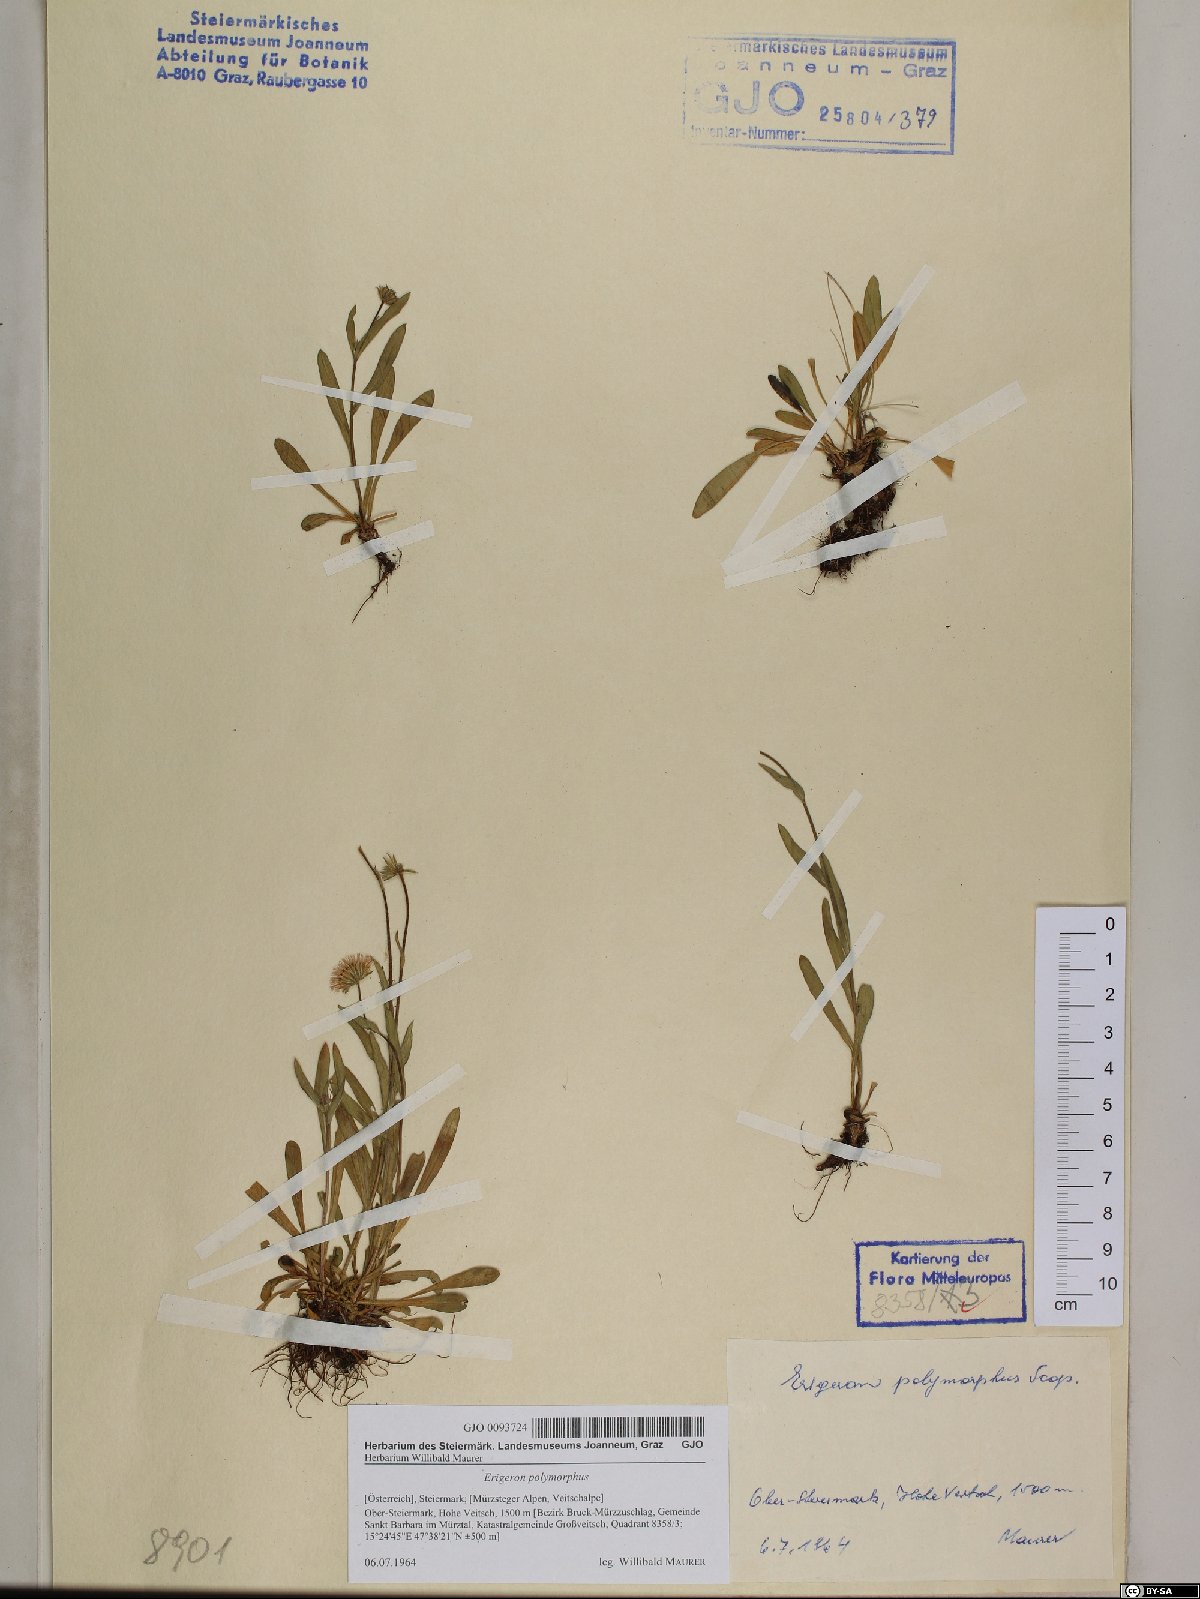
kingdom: Plantae
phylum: Tracheophyta
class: Magnoliopsida
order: Asterales
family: Asteraceae
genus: Erigeron
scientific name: Erigeron alpinus
